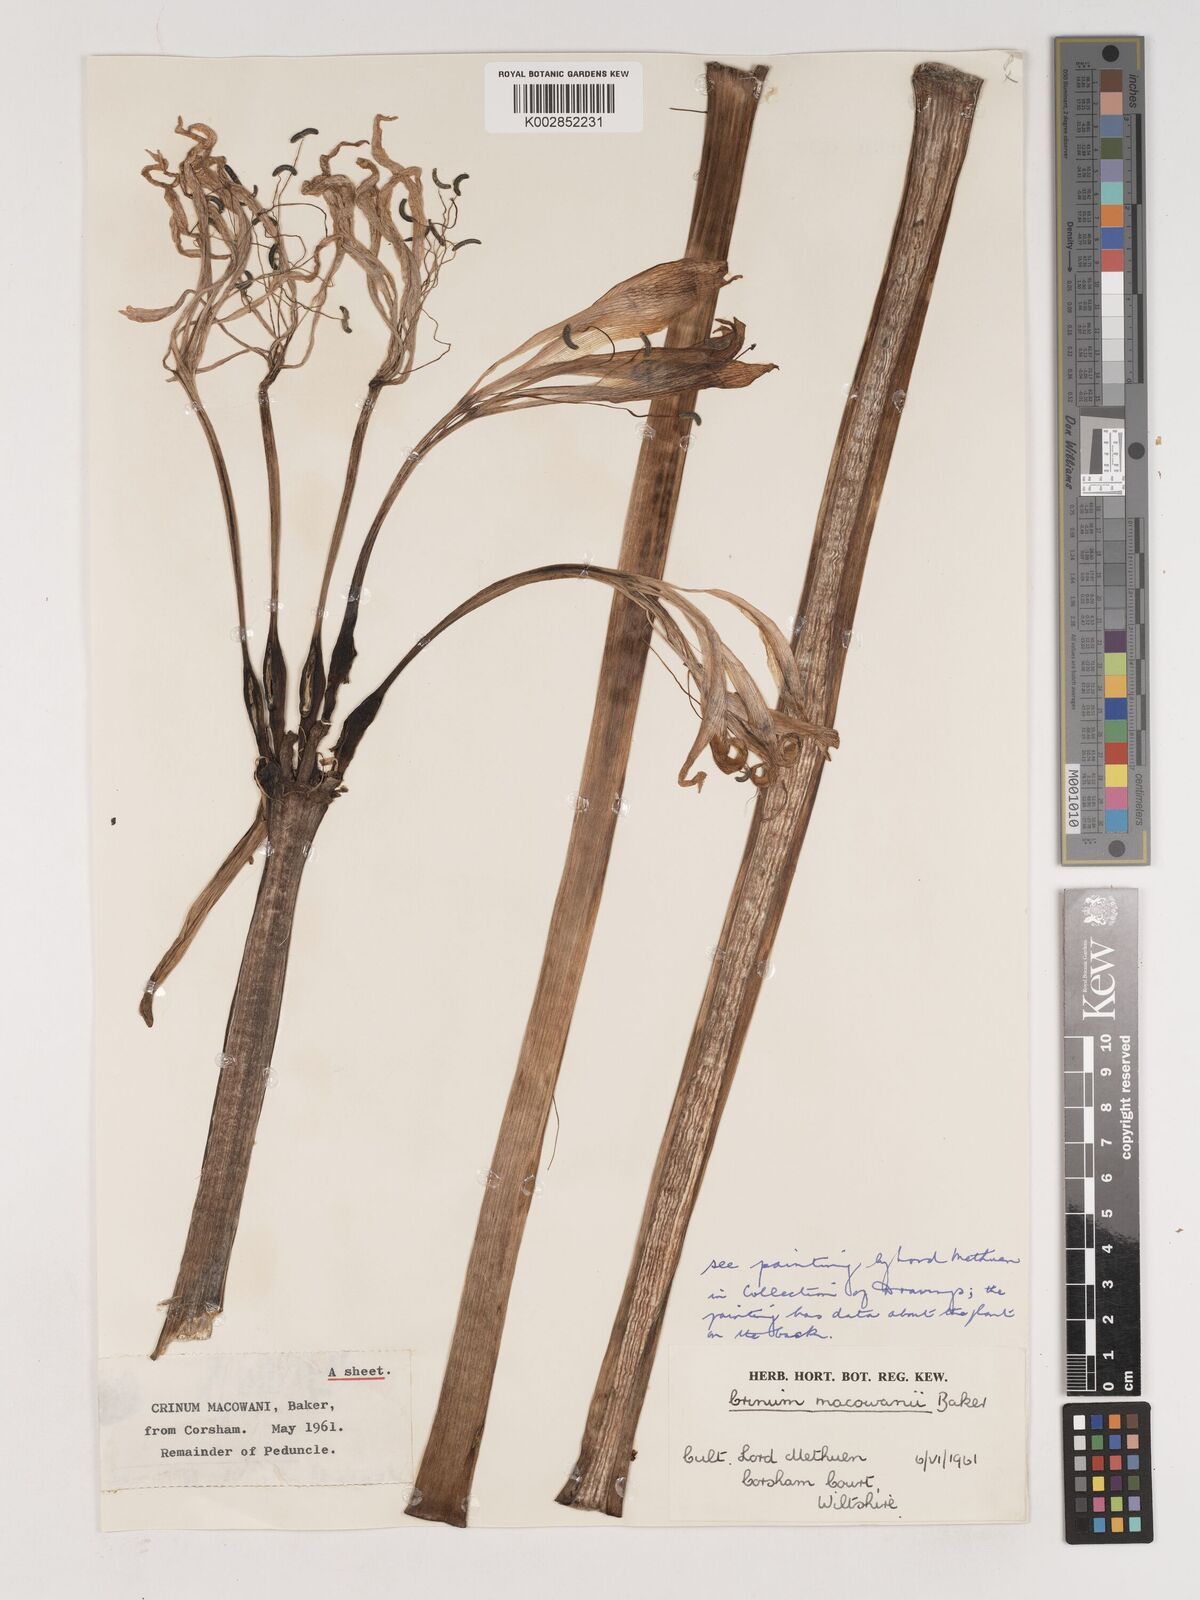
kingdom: Plantae
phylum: Tracheophyta
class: Liliopsida
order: Asparagales
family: Amaryllidaceae
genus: Crinum
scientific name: Crinum macowanii
